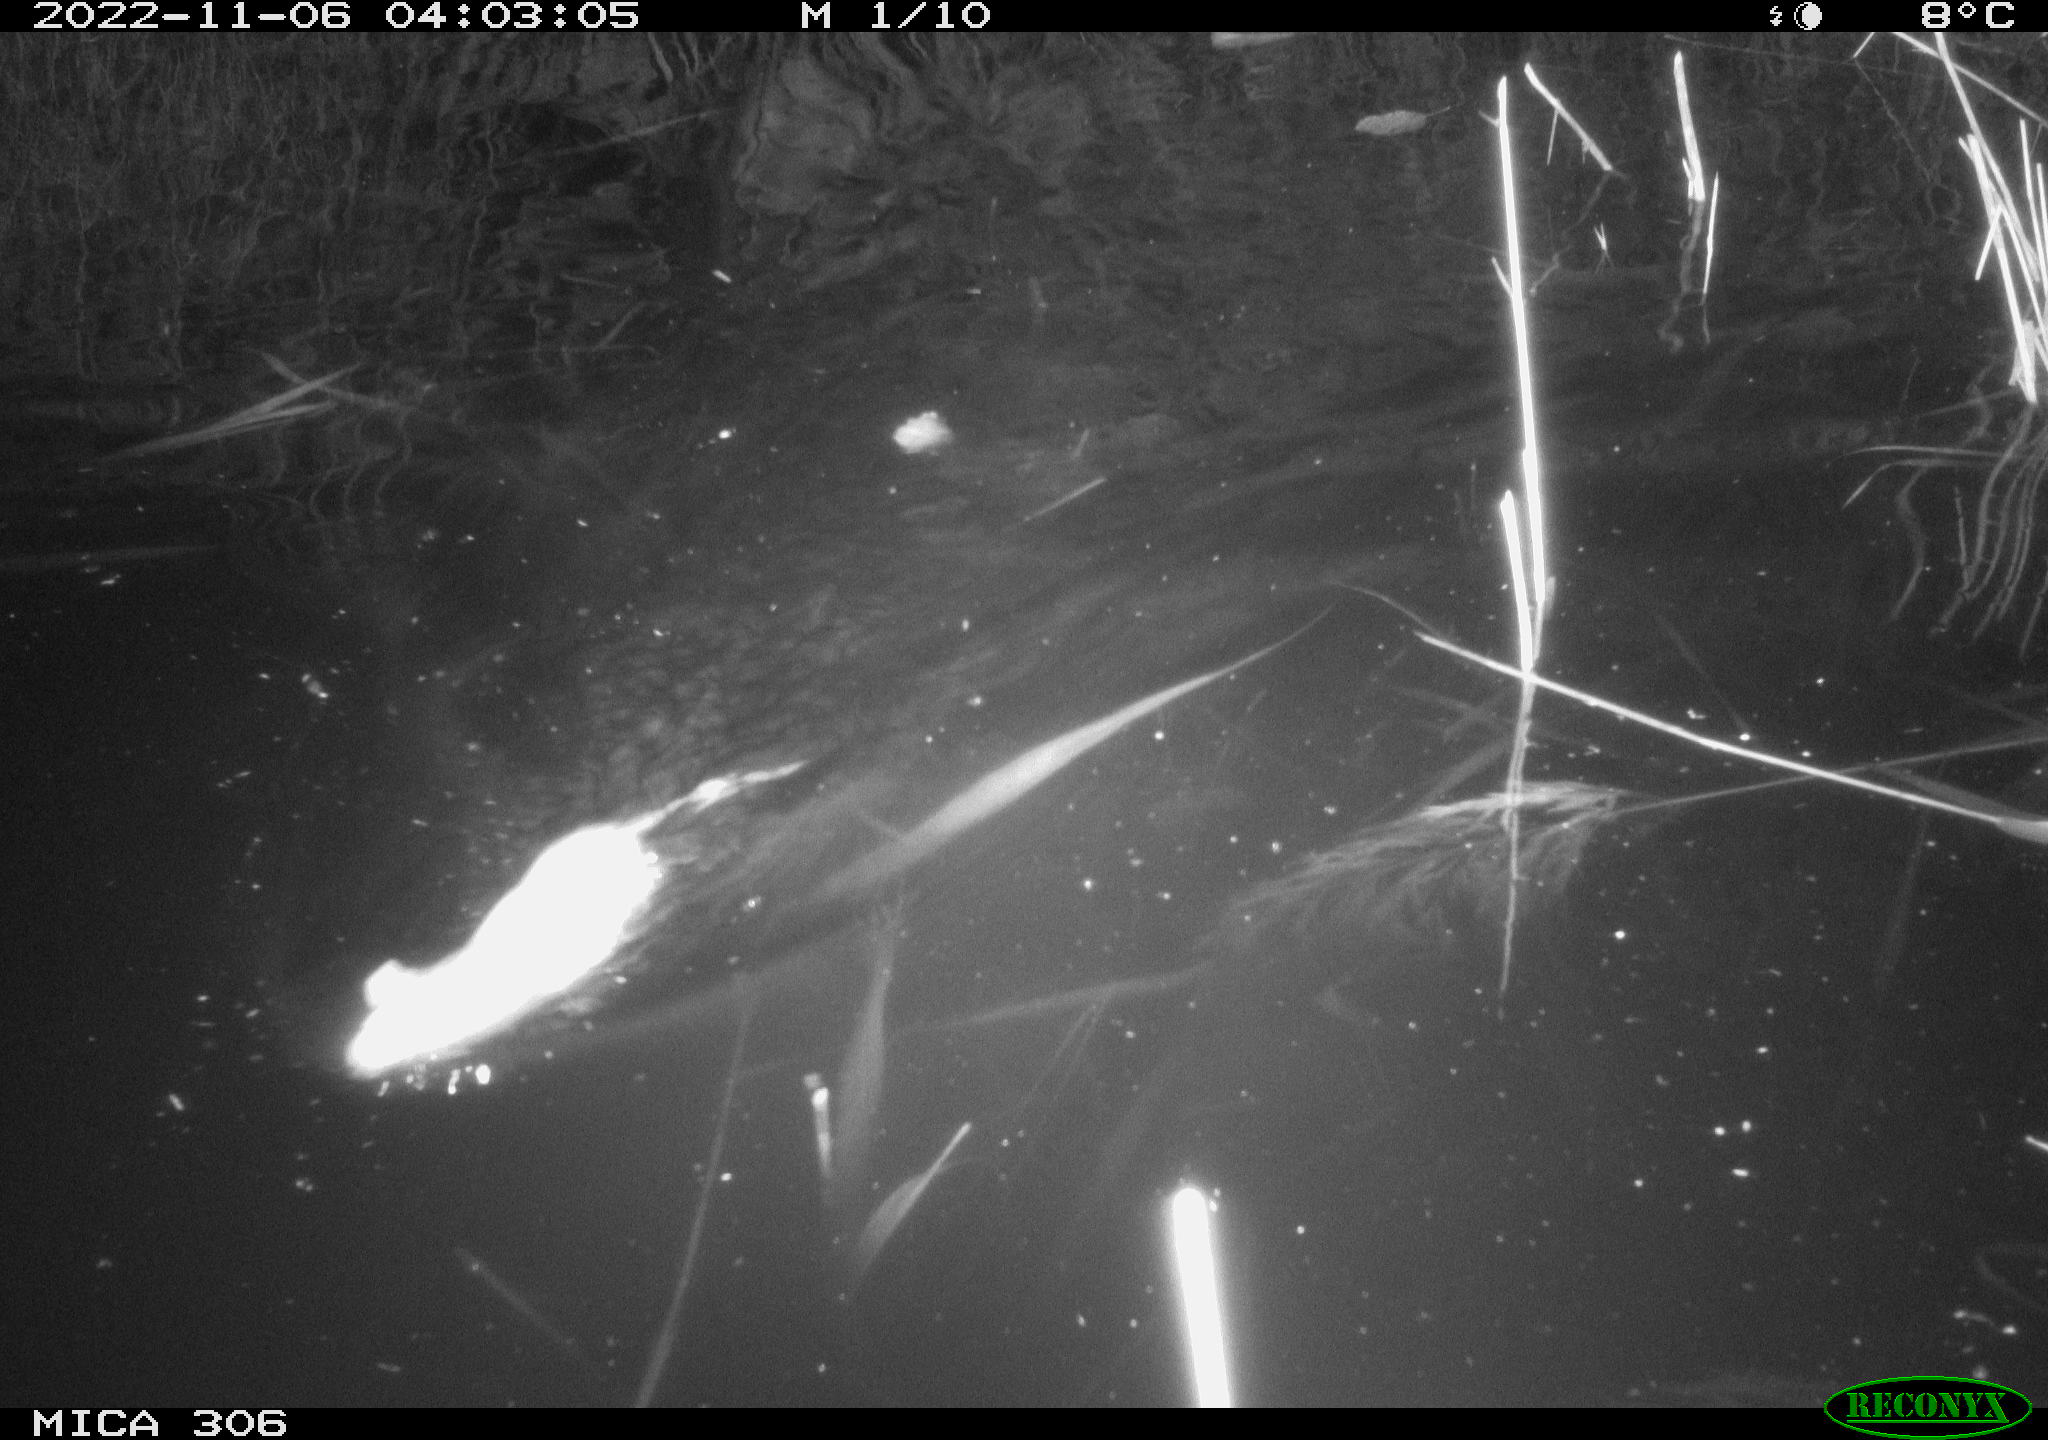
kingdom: Animalia
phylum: Chordata
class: Mammalia
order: Rodentia
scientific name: Rodentia
